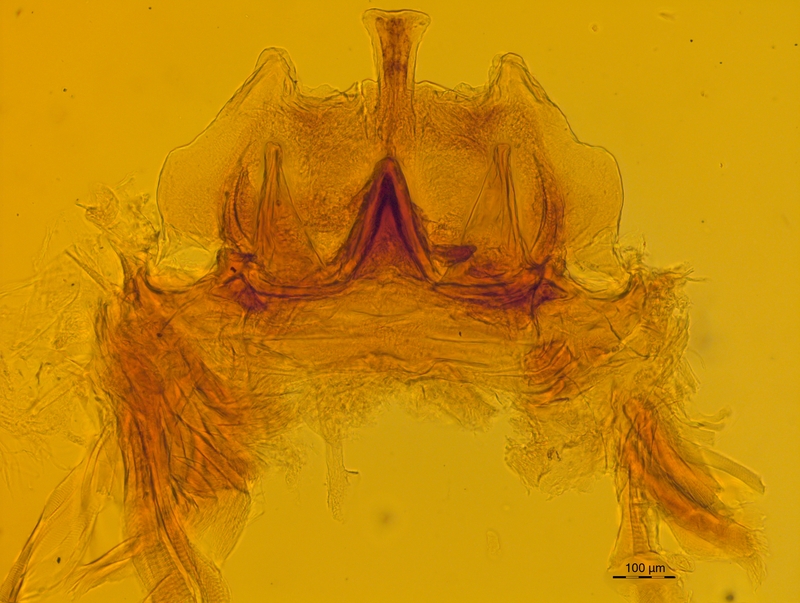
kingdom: Animalia
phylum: Arthropoda
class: Diplopoda
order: Chordeumatida
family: Craspedosomatidae
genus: Craspedosoma
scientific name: Craspedosoma rawlinsii
